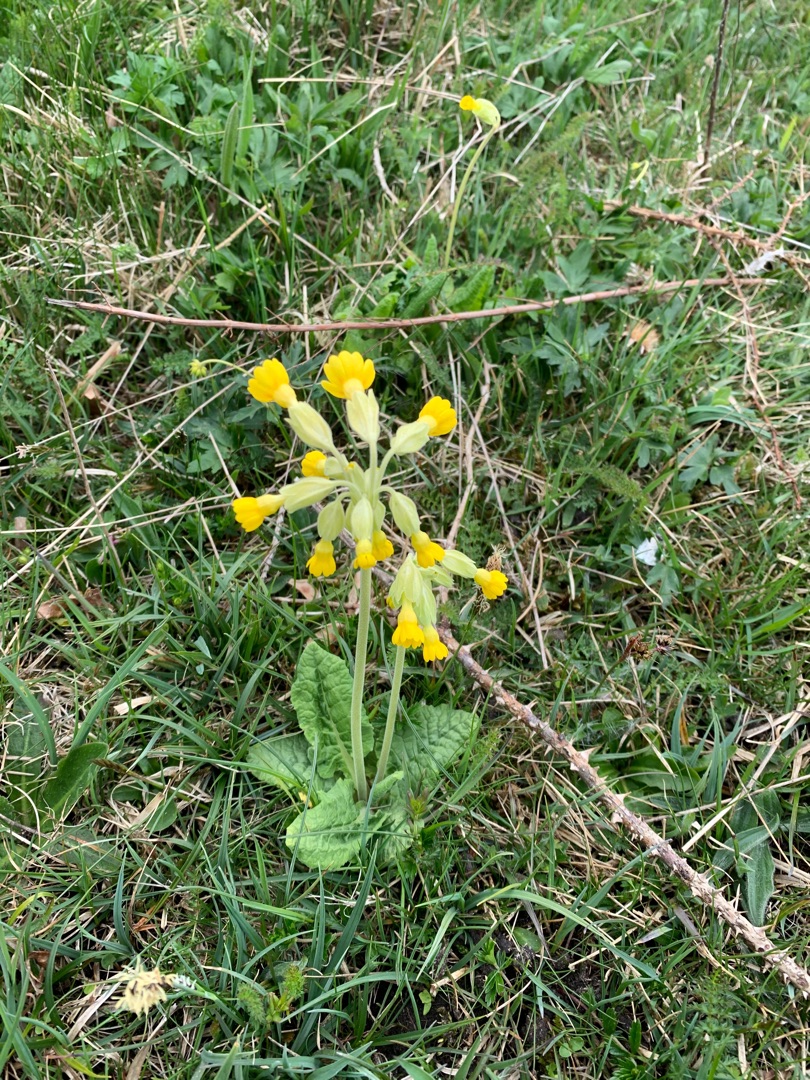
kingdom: Plantae
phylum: Tracheophyta
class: Magnoliopsida
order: Ericales
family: Primulaceae
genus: Primula
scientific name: Primula veris
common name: Hulkravet kodriver
